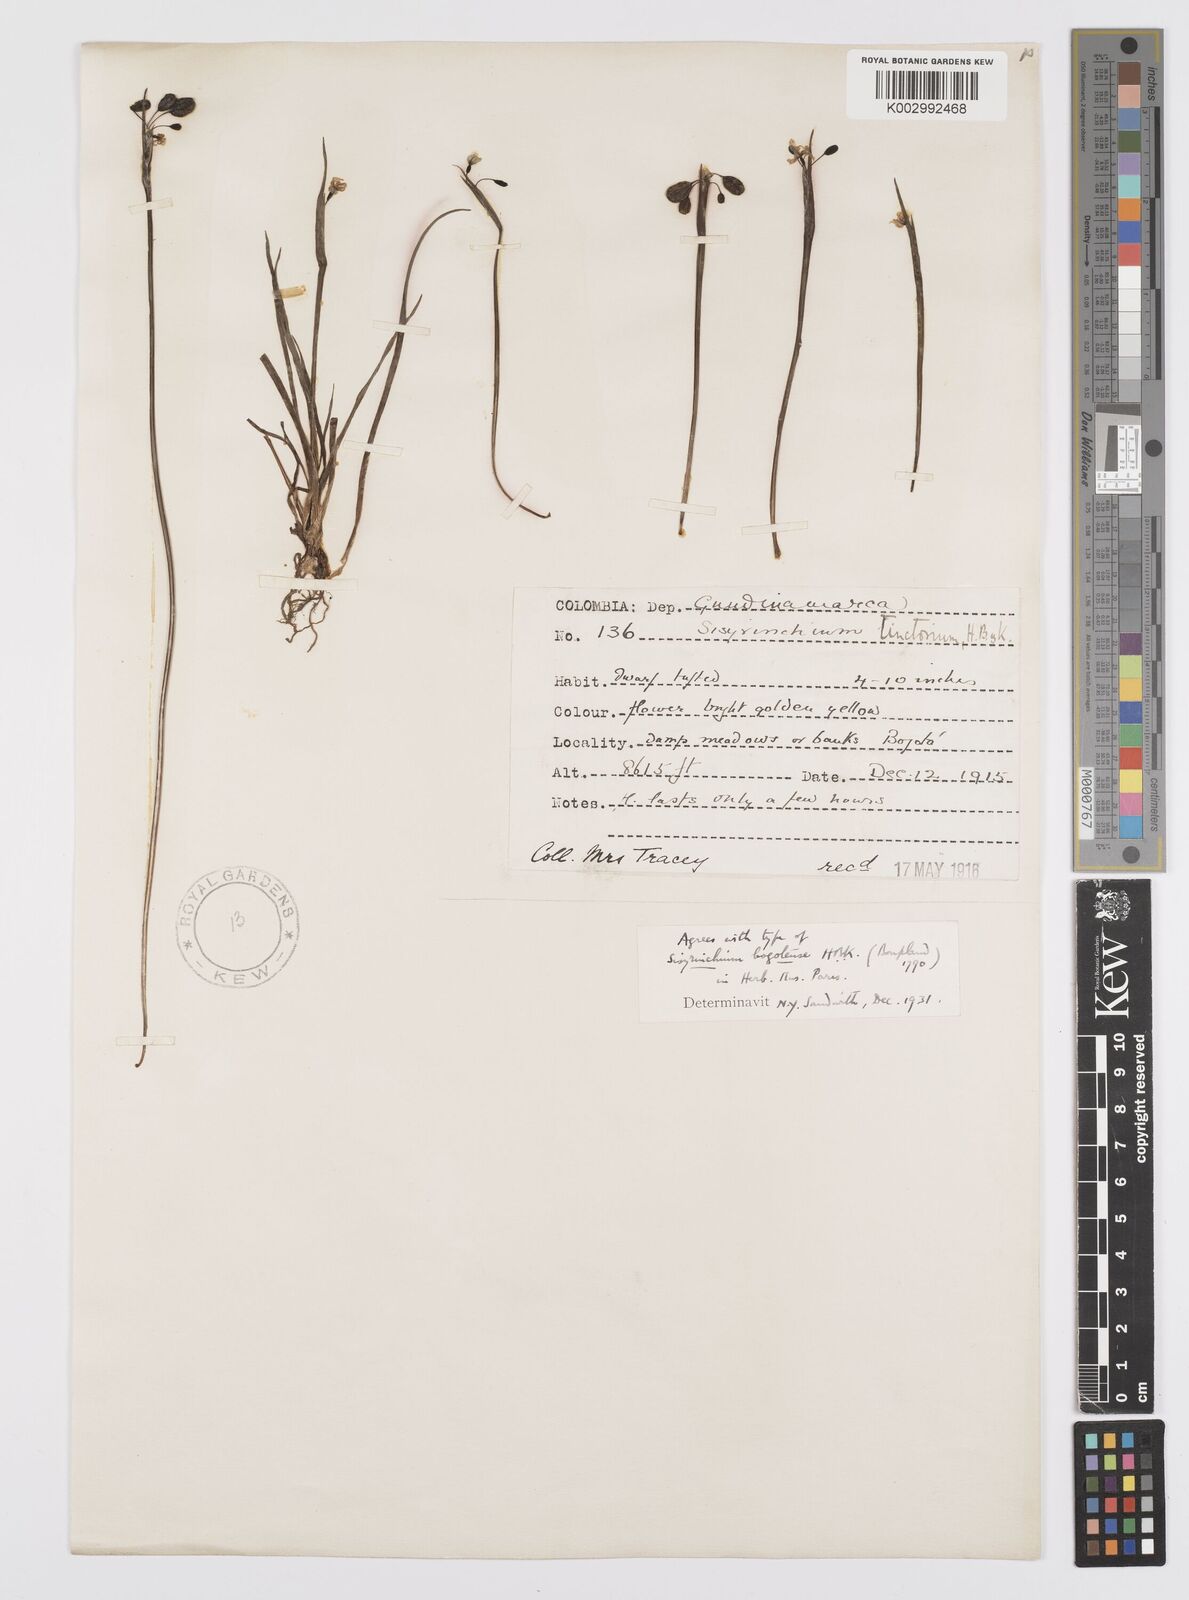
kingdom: Plantae
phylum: Tracheophyta
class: Liliopsida
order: Asparagales
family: Iridaceae
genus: Sisyrinchium
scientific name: Sisyrinchium tinctorium
